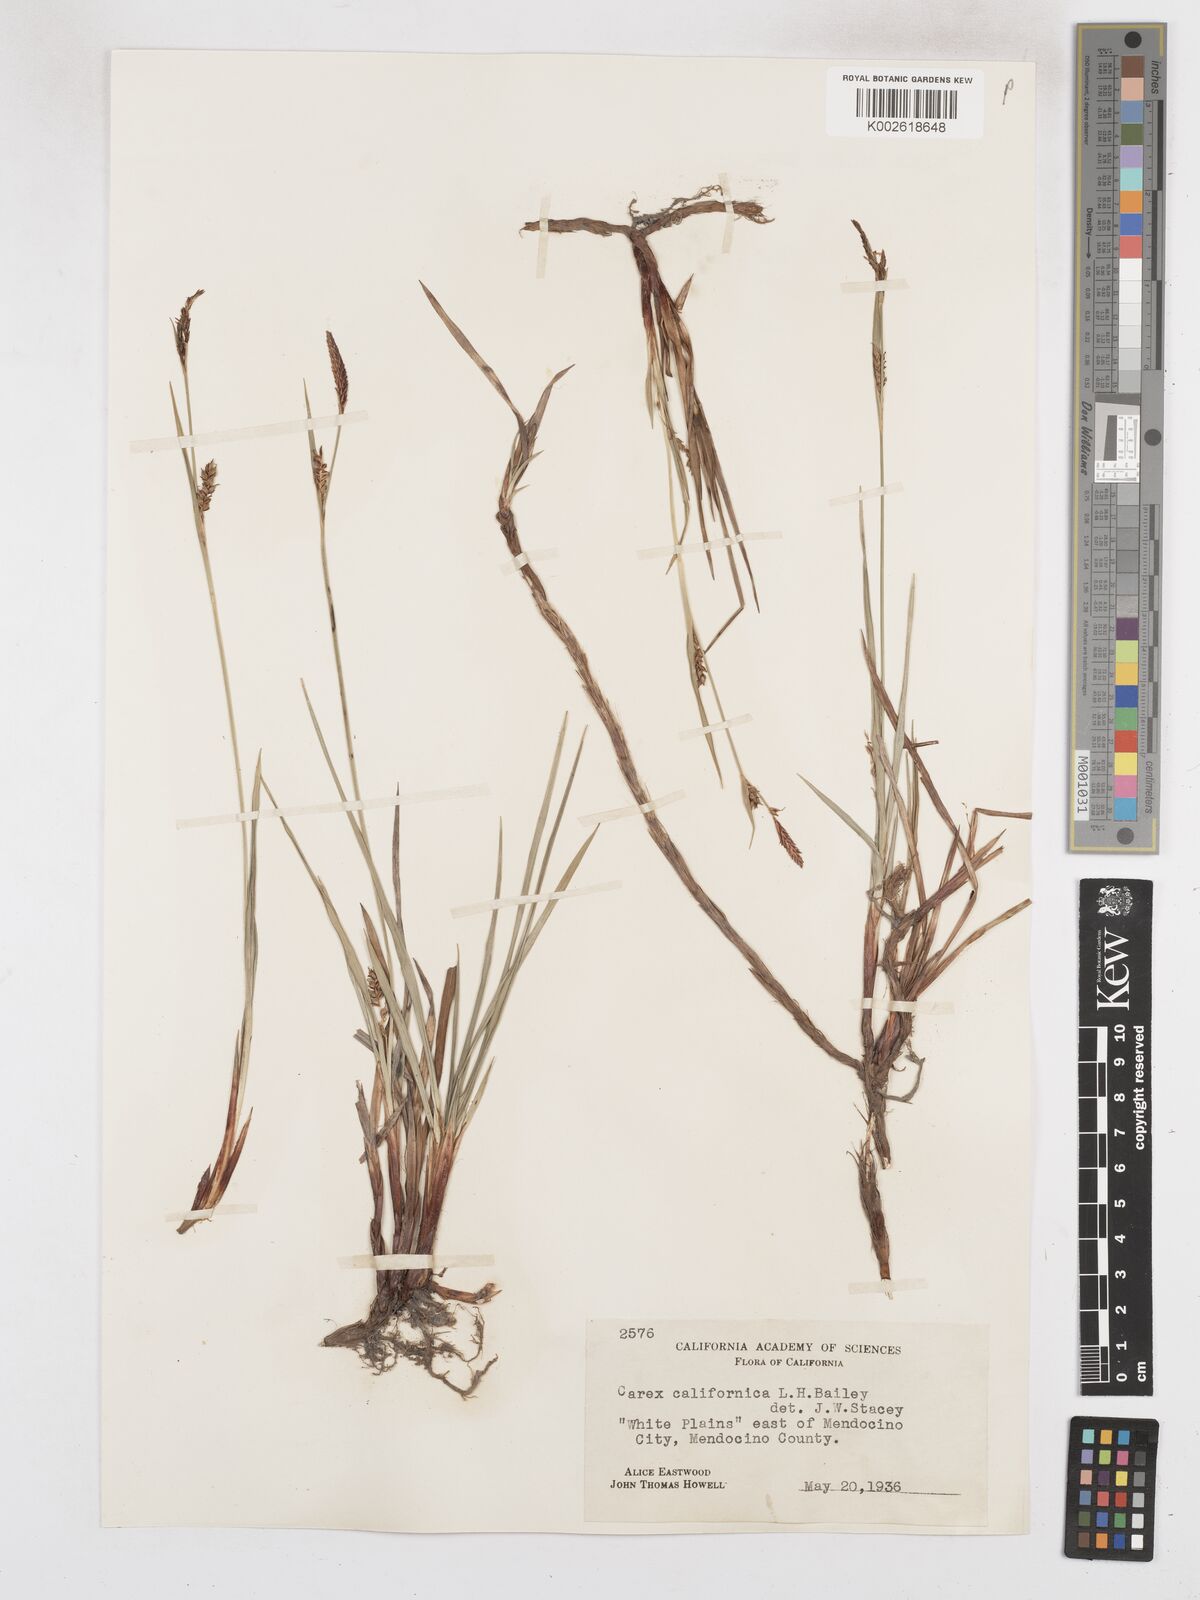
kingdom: Plantae
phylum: Tracheophyta
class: Liliopsida
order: Poales
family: Cyperaceae
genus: Carex
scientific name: Carex californica
